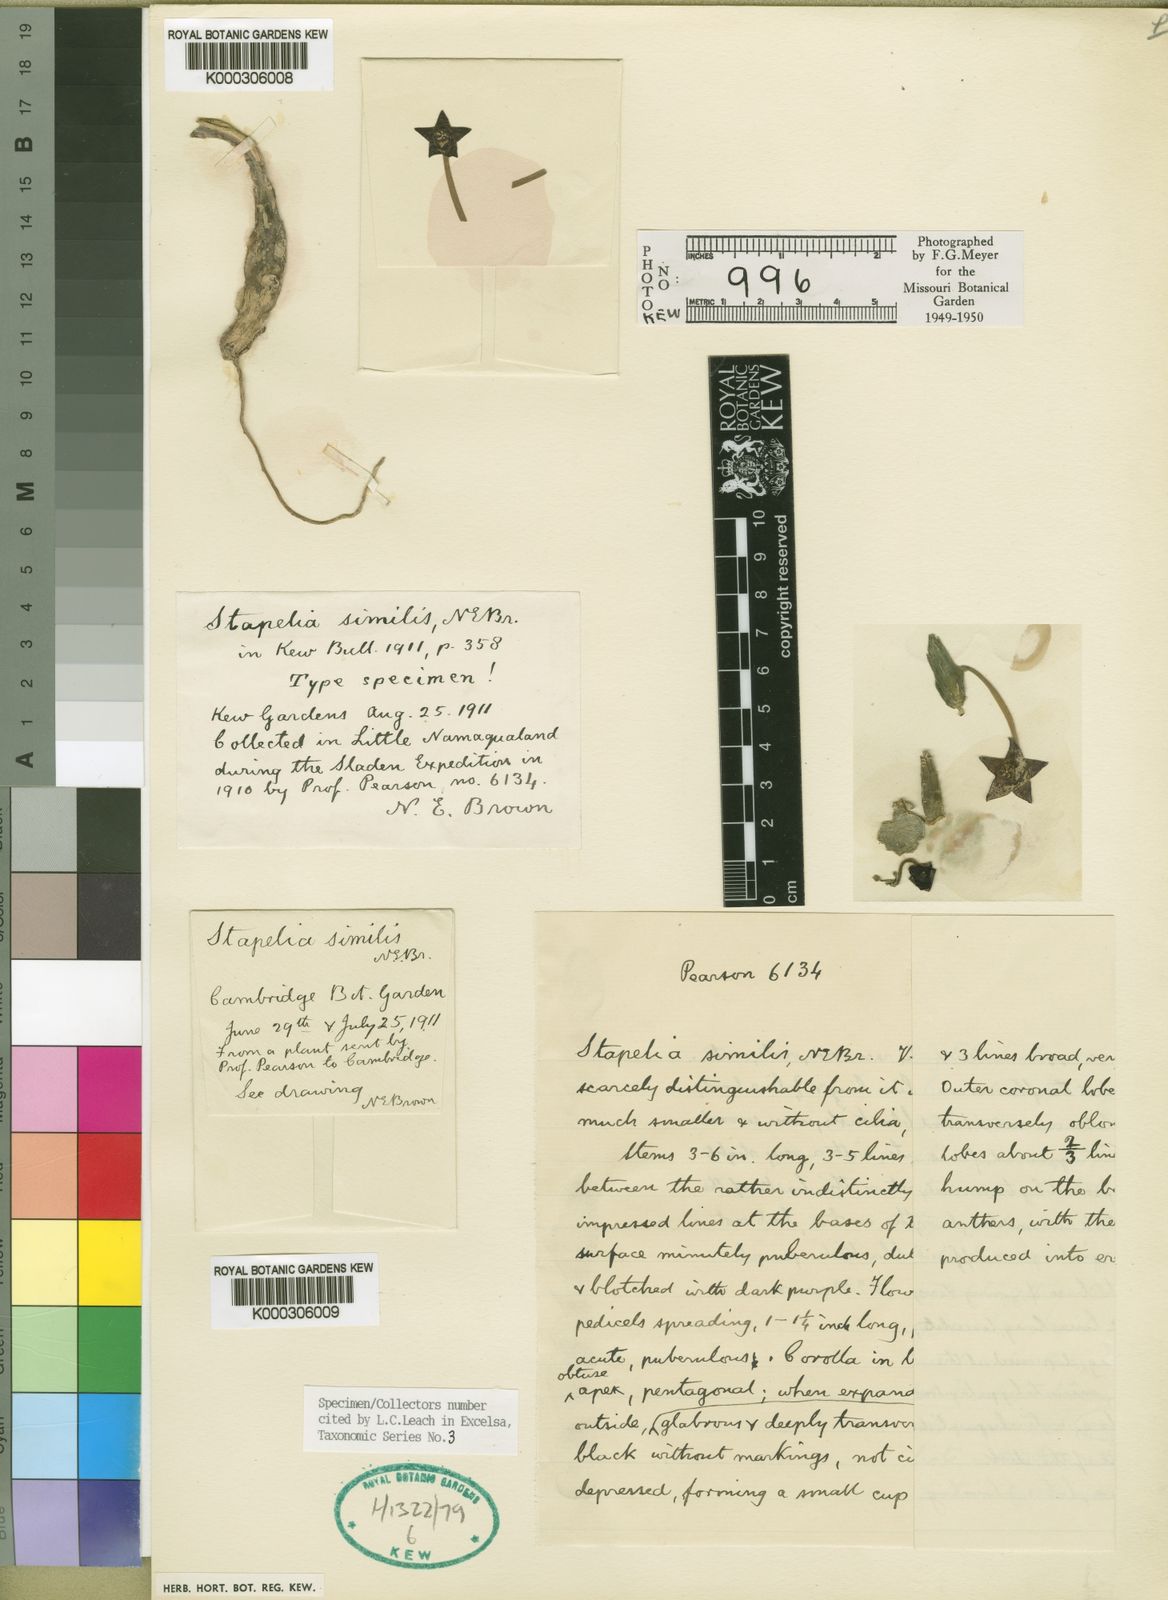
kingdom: Plantae
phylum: Tracheophyta
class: Magnoliopsida
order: Gentianales
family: Apocynaceae
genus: Ceropegia
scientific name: Ceropegia portae-taurinae
